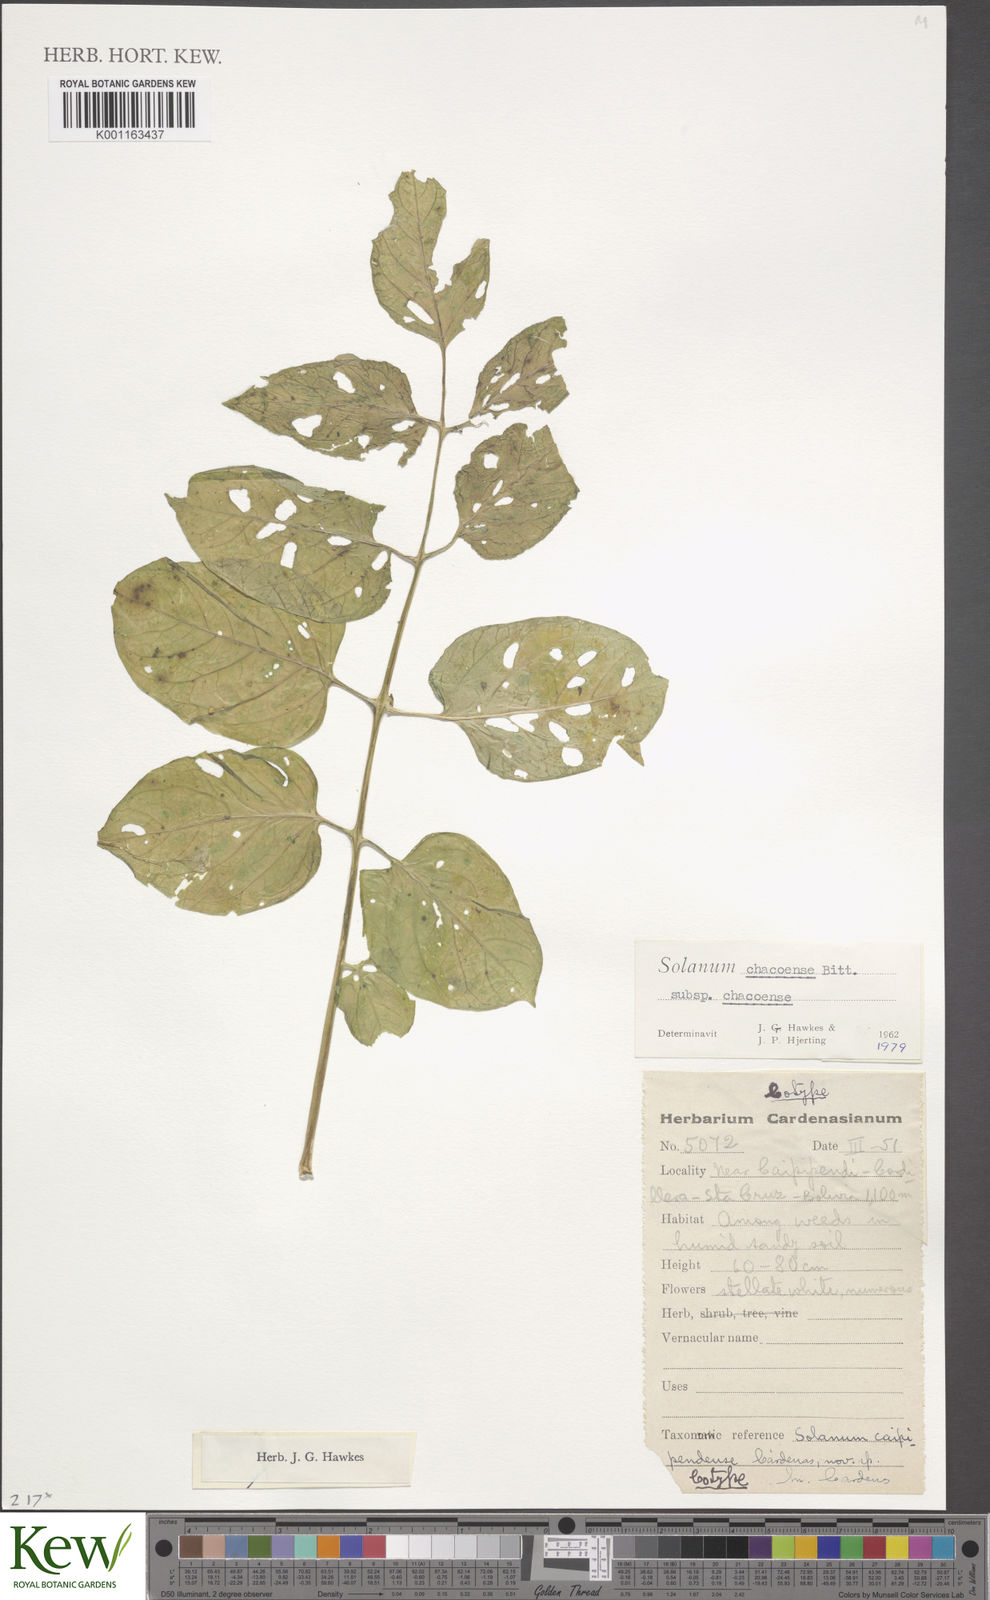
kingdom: Plantae
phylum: Tracheophyta
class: Magnoliopsida
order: Solanales
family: Solanaceae
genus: Solanum
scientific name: Solanum chacoense
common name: Chaco potato
